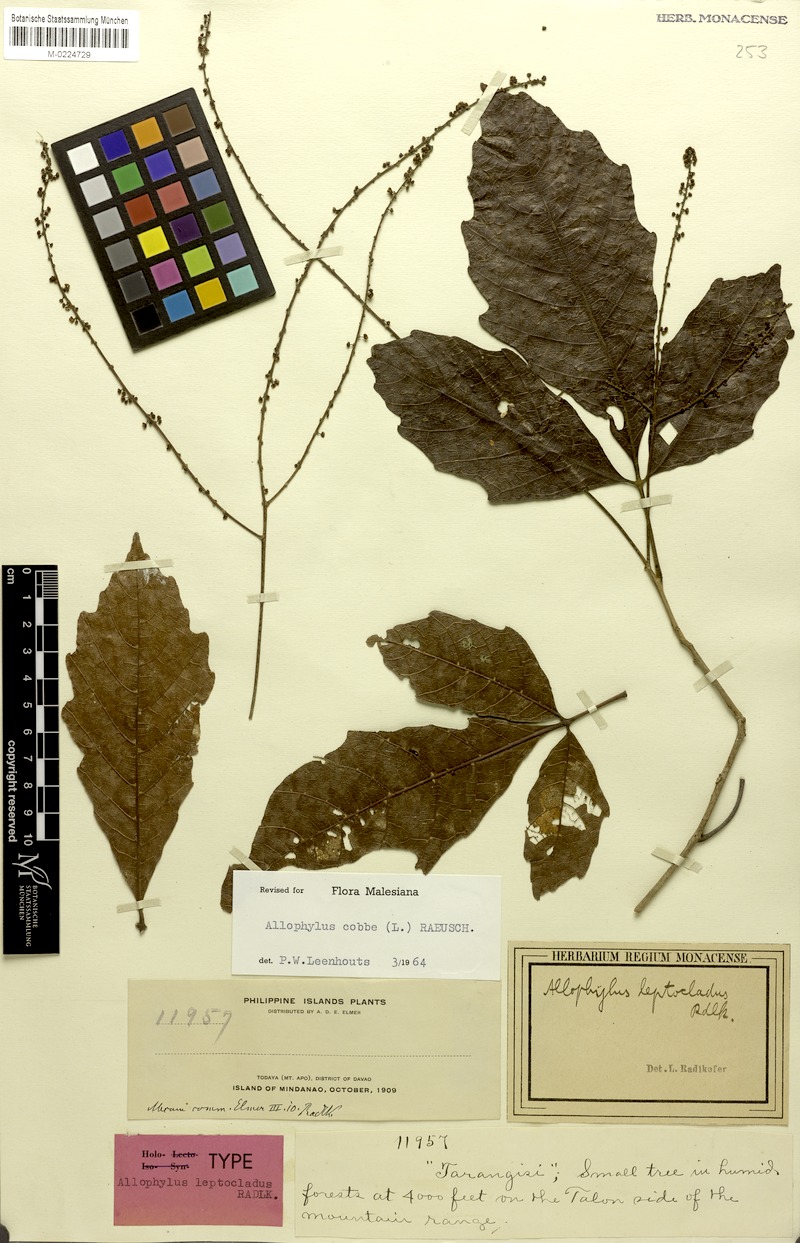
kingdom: Plantae
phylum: Tracheophyta
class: Magnoliopsida
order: Sapindales
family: Sapindaceae
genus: Allophylus
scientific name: Allophylus leptocladus
